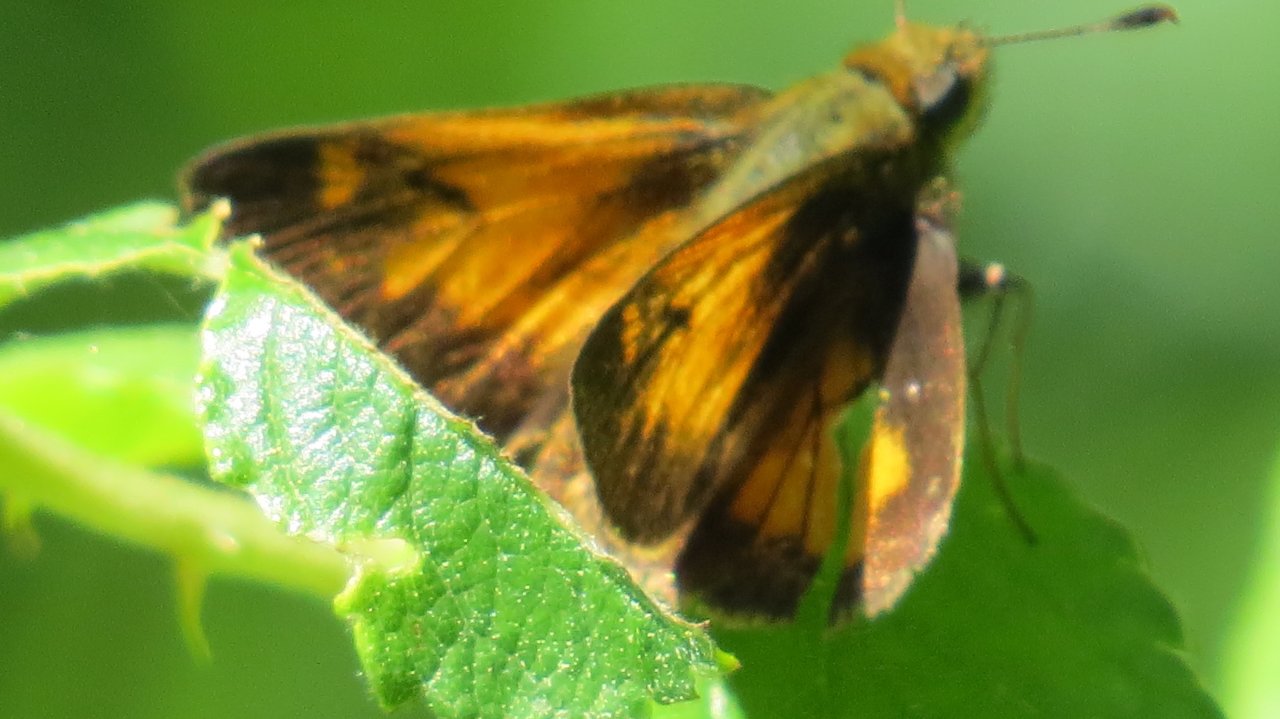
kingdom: Animalia
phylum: Arthropoda
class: Insecta
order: Lepidoptera
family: Hesperiidae
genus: Lon
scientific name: Lon hobomok
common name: Hobomok Skipper
